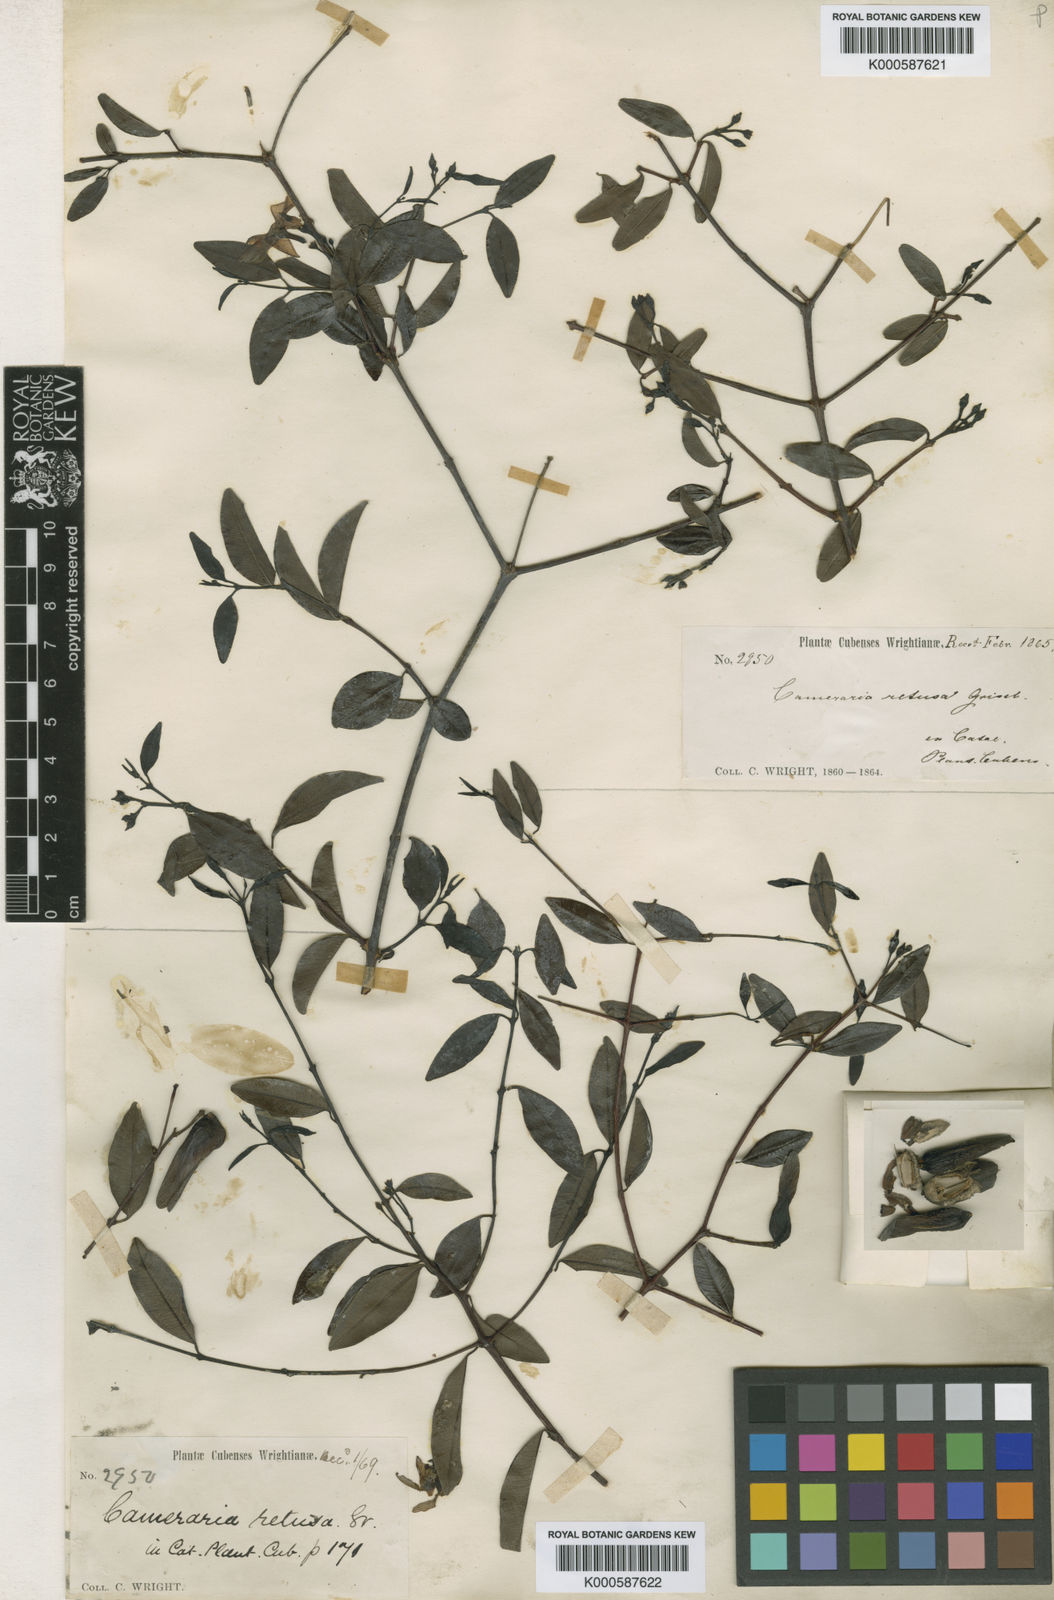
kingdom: Plantae
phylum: Tracheophyta
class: Magnoliopsida
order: Gentianales
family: Apocynaceae
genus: Cameraria
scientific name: Cameraria retusa
